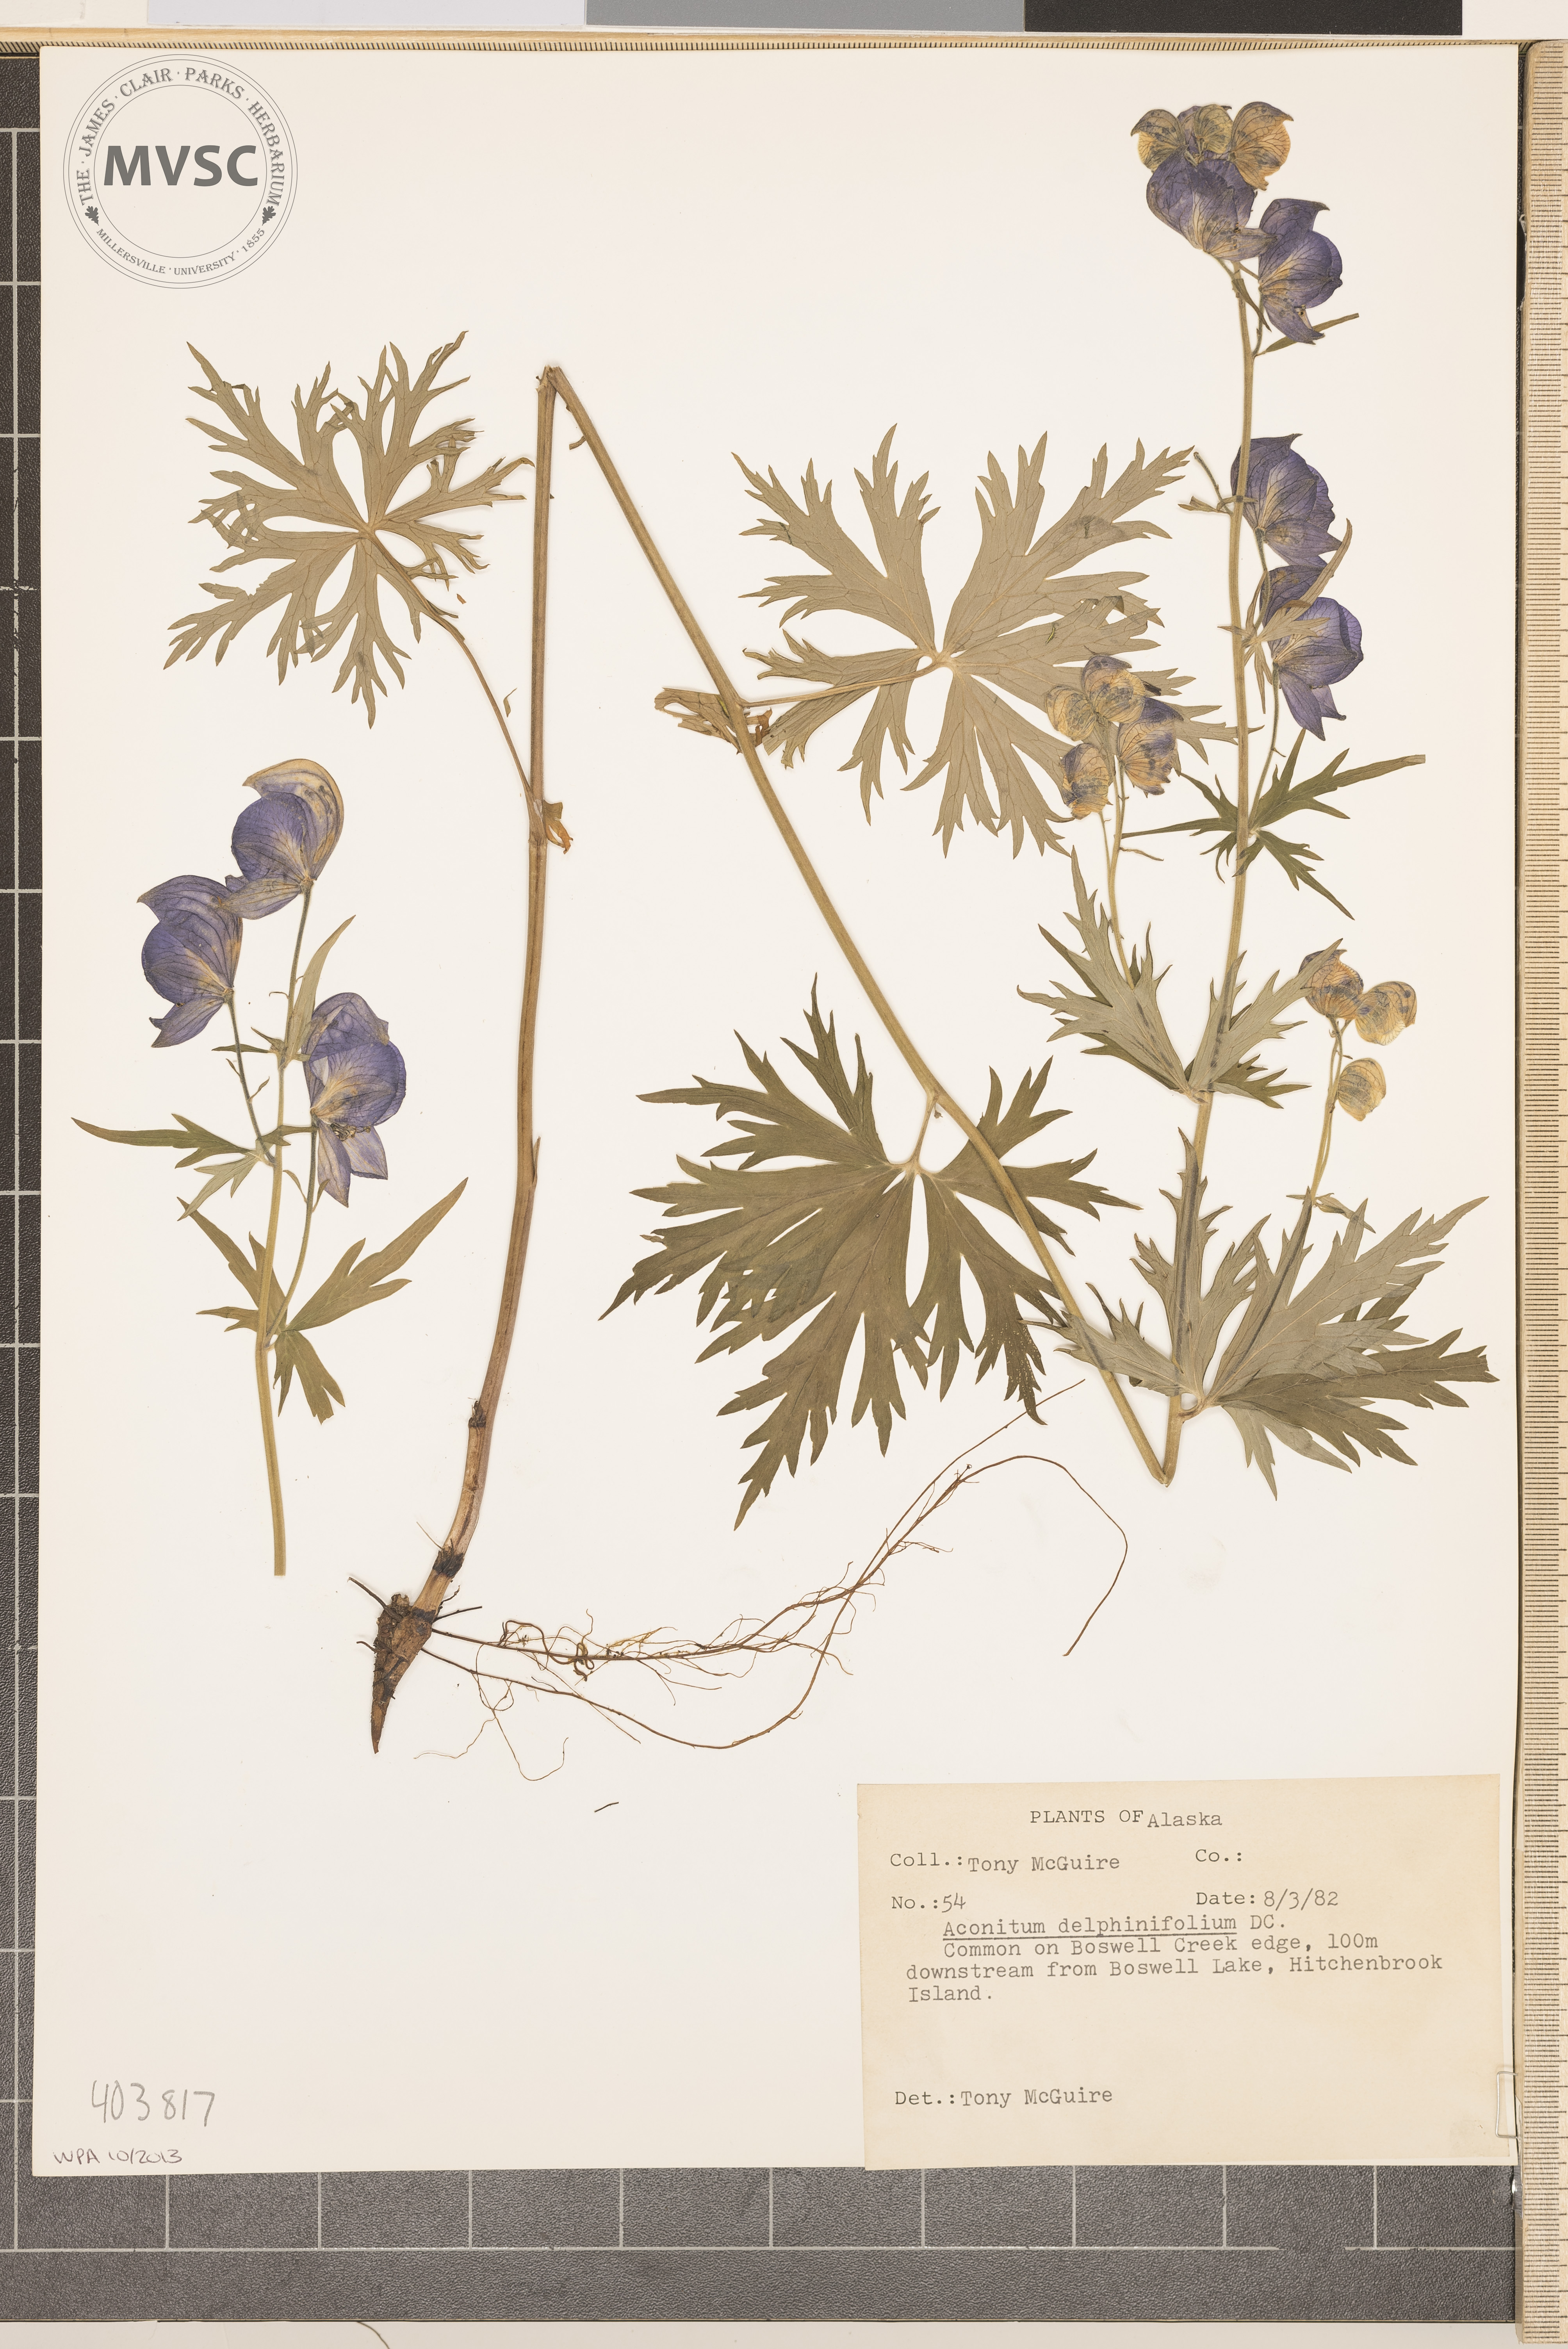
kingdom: Plantae
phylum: Tracheophyta
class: Magnoliopsida
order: Ranunculales
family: Ranunculaceae
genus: Aconitum
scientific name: Aconitum delphinifolium
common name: Larkspur-leaved monkshood
